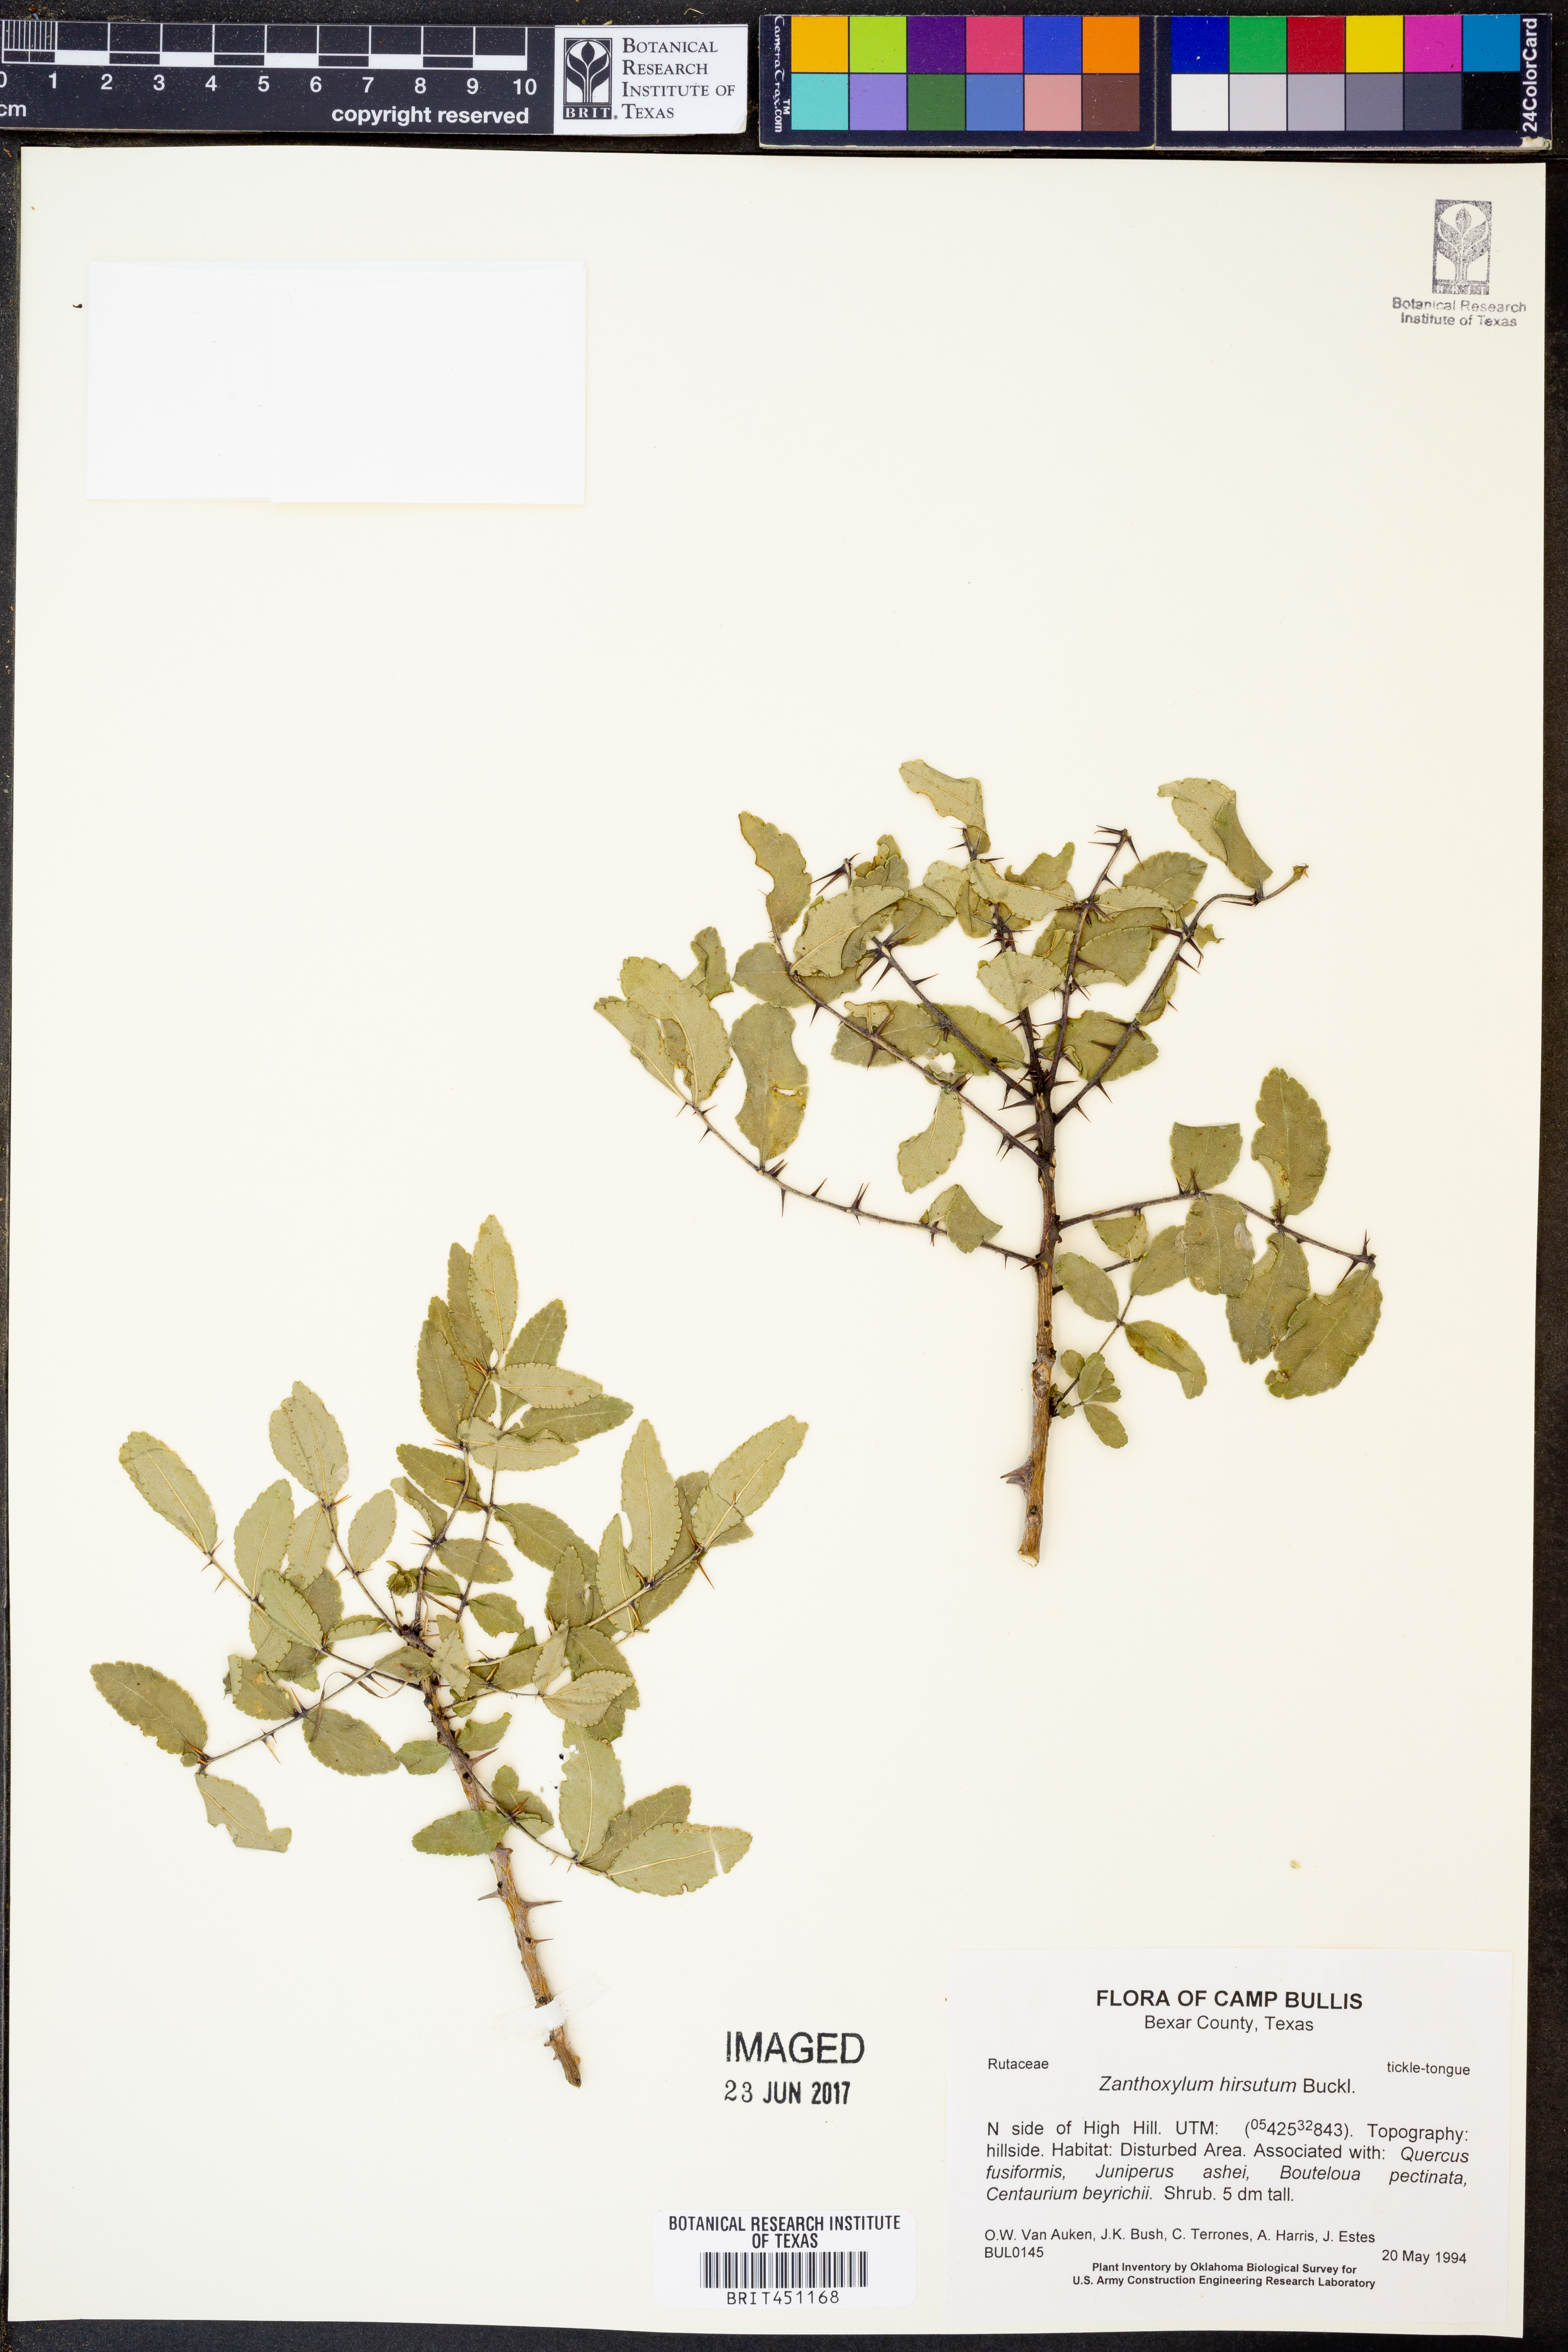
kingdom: Plantae
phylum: Tracheophyta
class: Magnoliopsida
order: Sapindales
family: Rutaceae
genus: Zanthoxylum
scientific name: Zanthoxylum clava-herculis
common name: Hercules'-club
